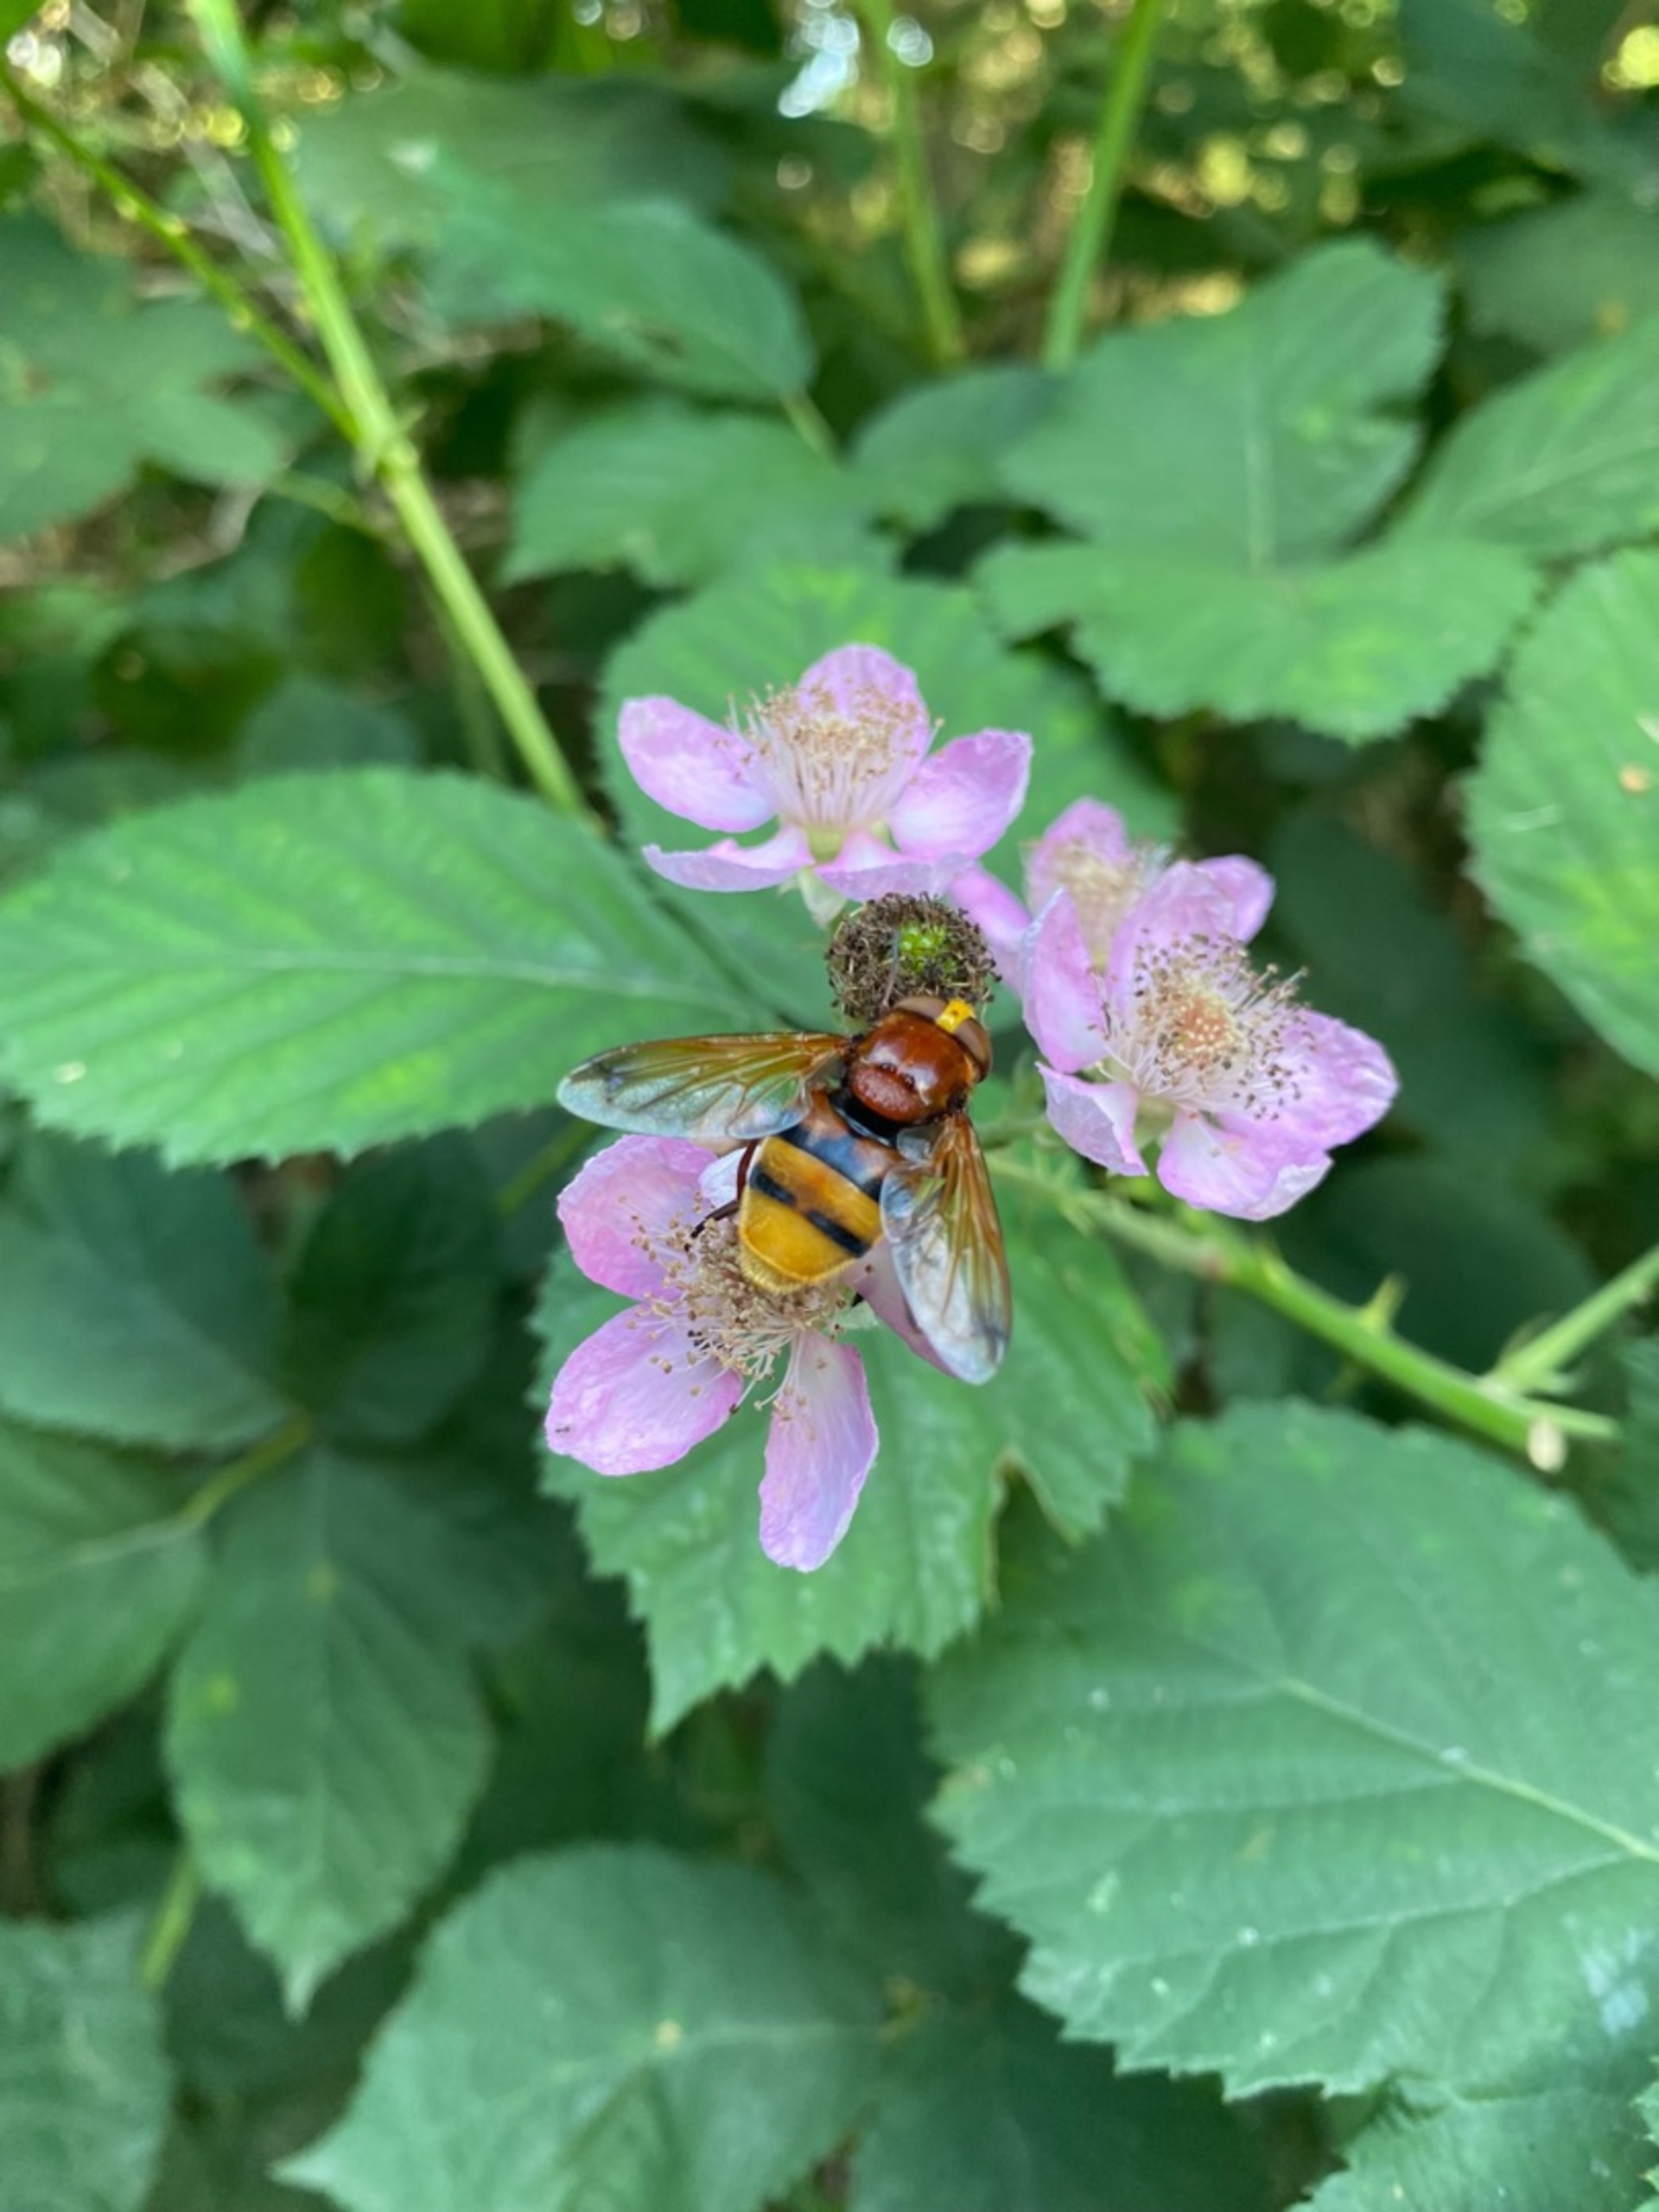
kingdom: Animalia
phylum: Arthropoda
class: Insecta
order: Diptera
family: Syrphidae
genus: Volucella
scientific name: Volucella zonaria
